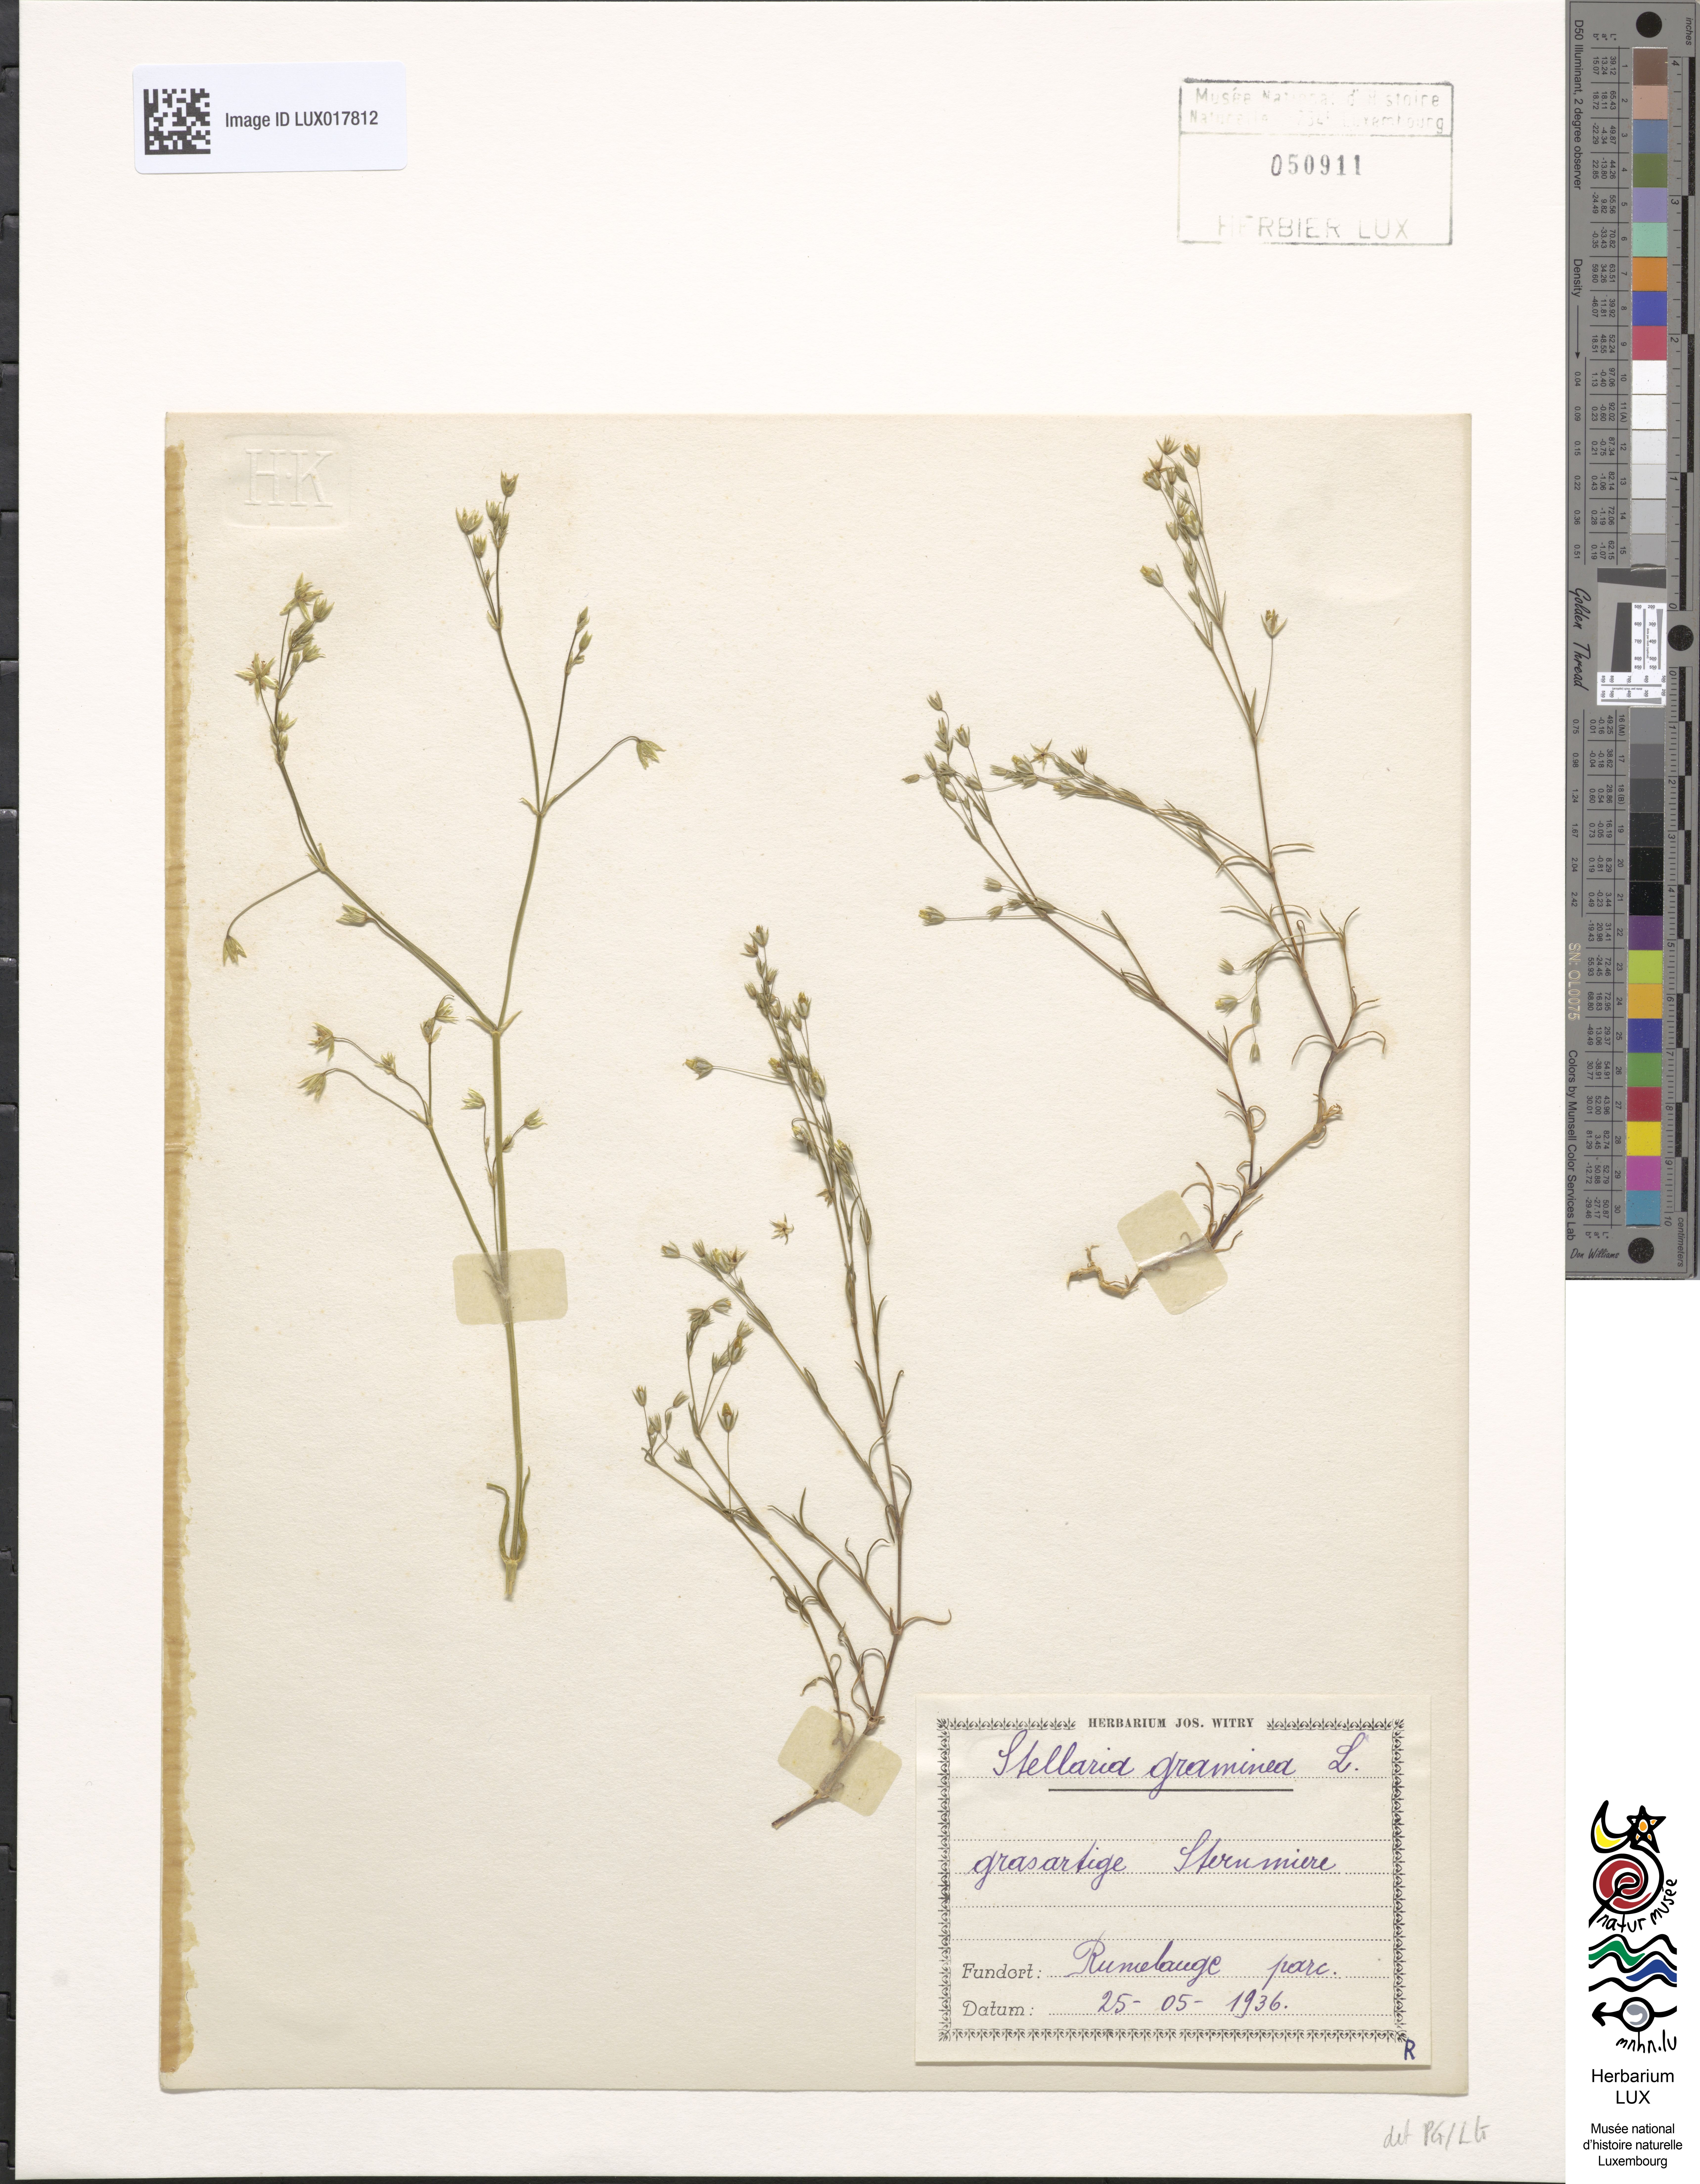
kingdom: Plantae
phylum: Tracheophyta
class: Magnoliopsida
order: Caryophyllales
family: Caryophyllaceae
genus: Stellaria
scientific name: Stellaria graminea
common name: Grass-like starwort
